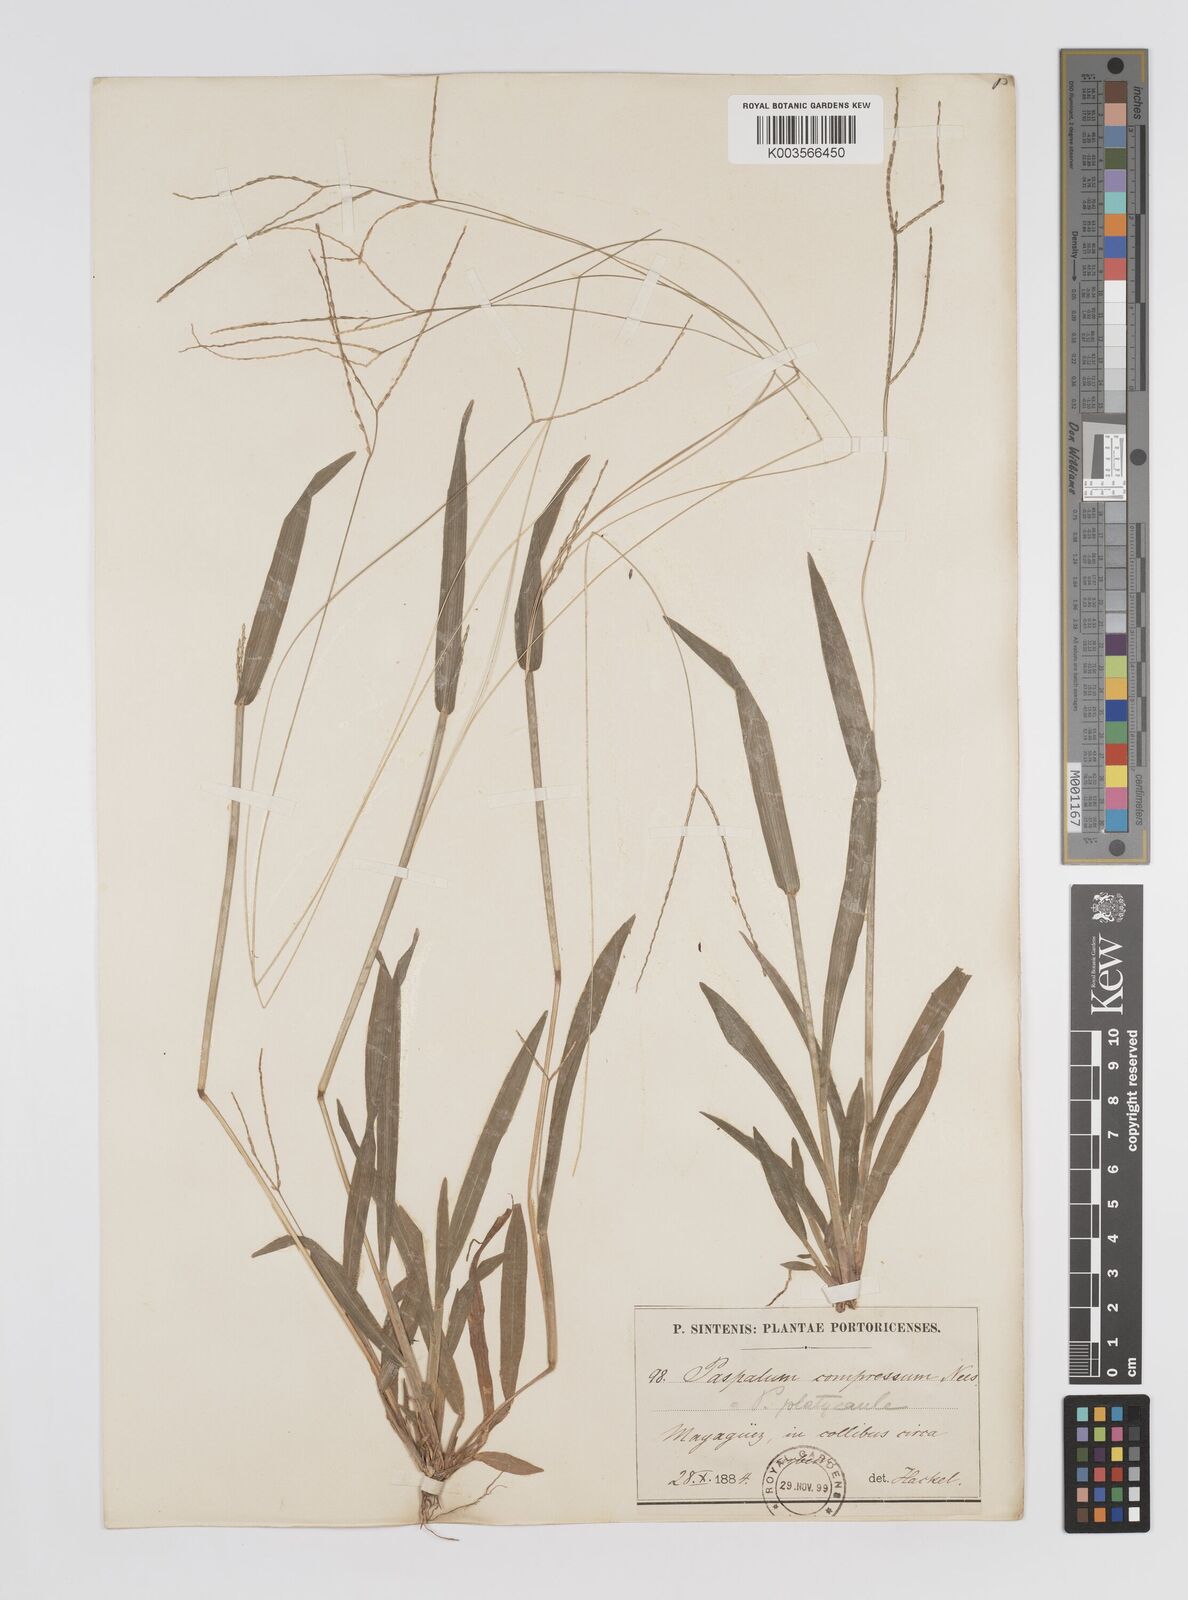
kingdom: Plantae
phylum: Tracheophyta
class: Liliopsida
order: Poales
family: Poaceae
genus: Axonopus
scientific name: Axonopus compressus
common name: American carpet grass
